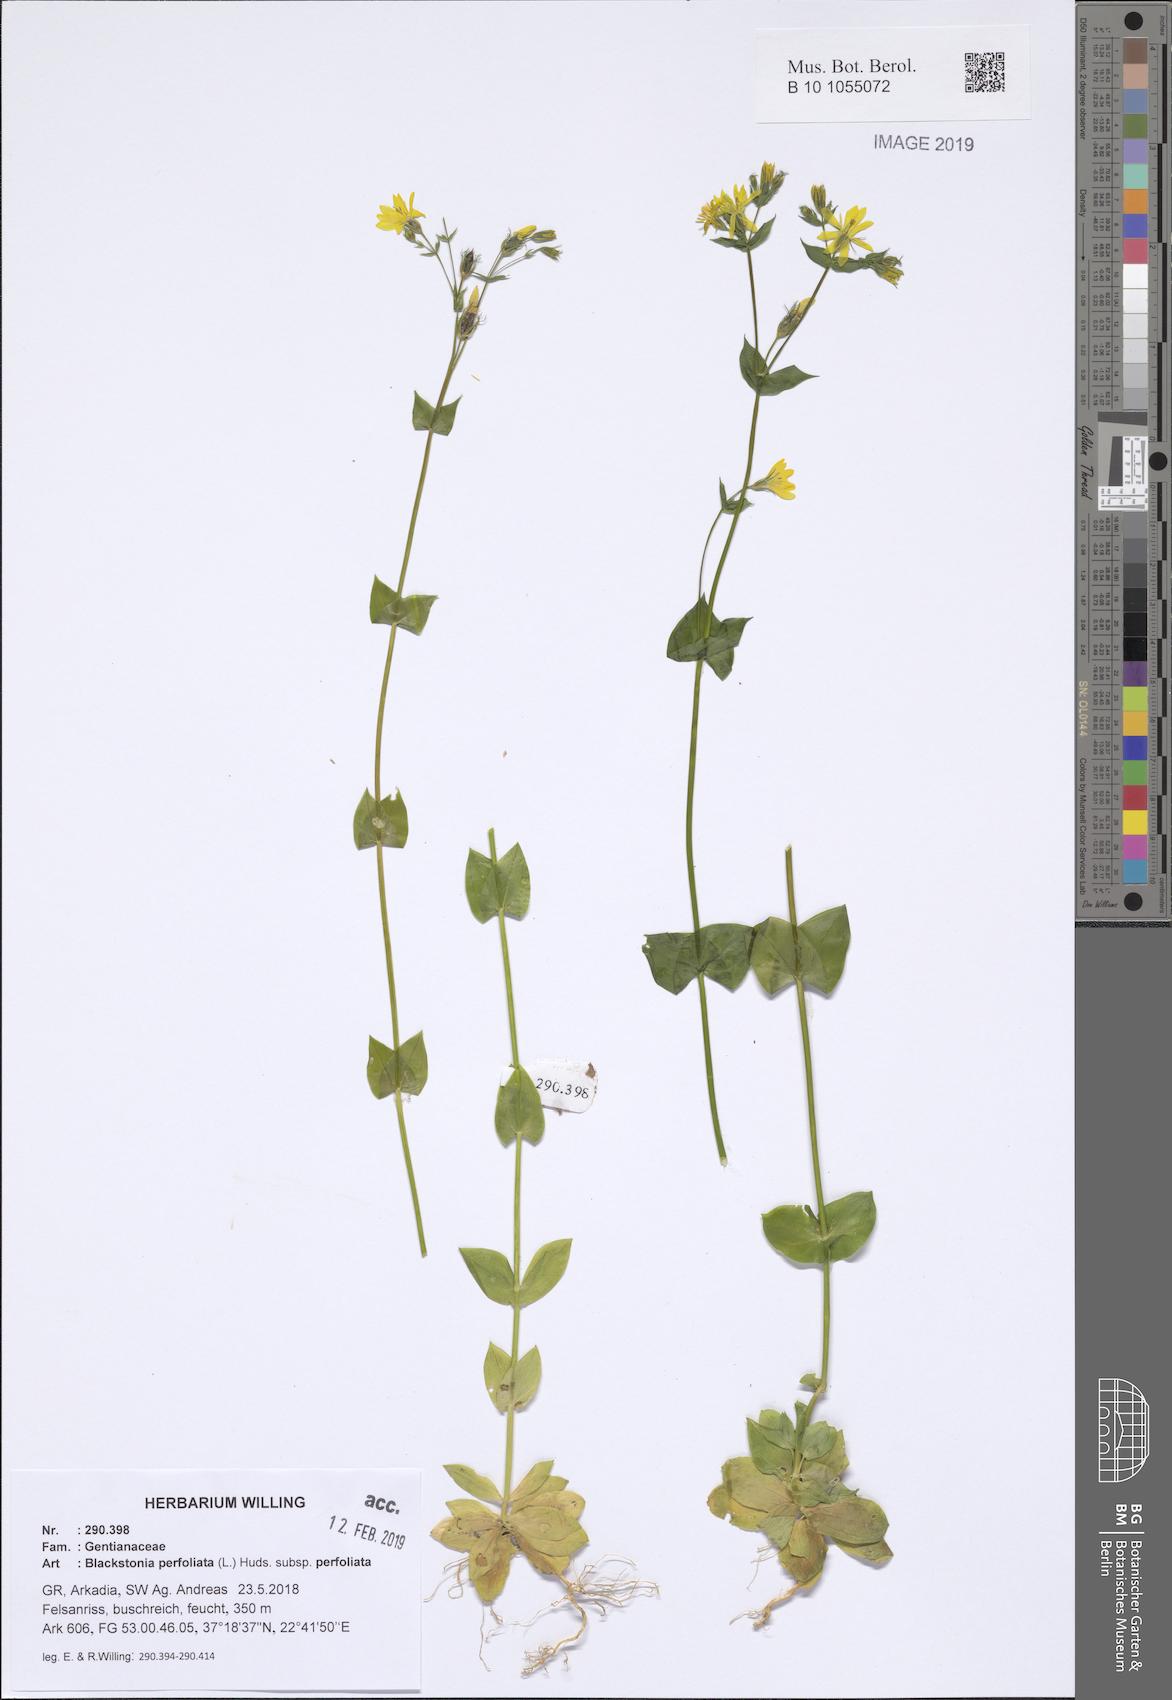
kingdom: Plantae
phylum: Tracheophyta
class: Magnoliopsida
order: Gentianales
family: Gentianaceae
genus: Blackstonia
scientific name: Blackstonia perfoliata
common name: Yellow-wort
